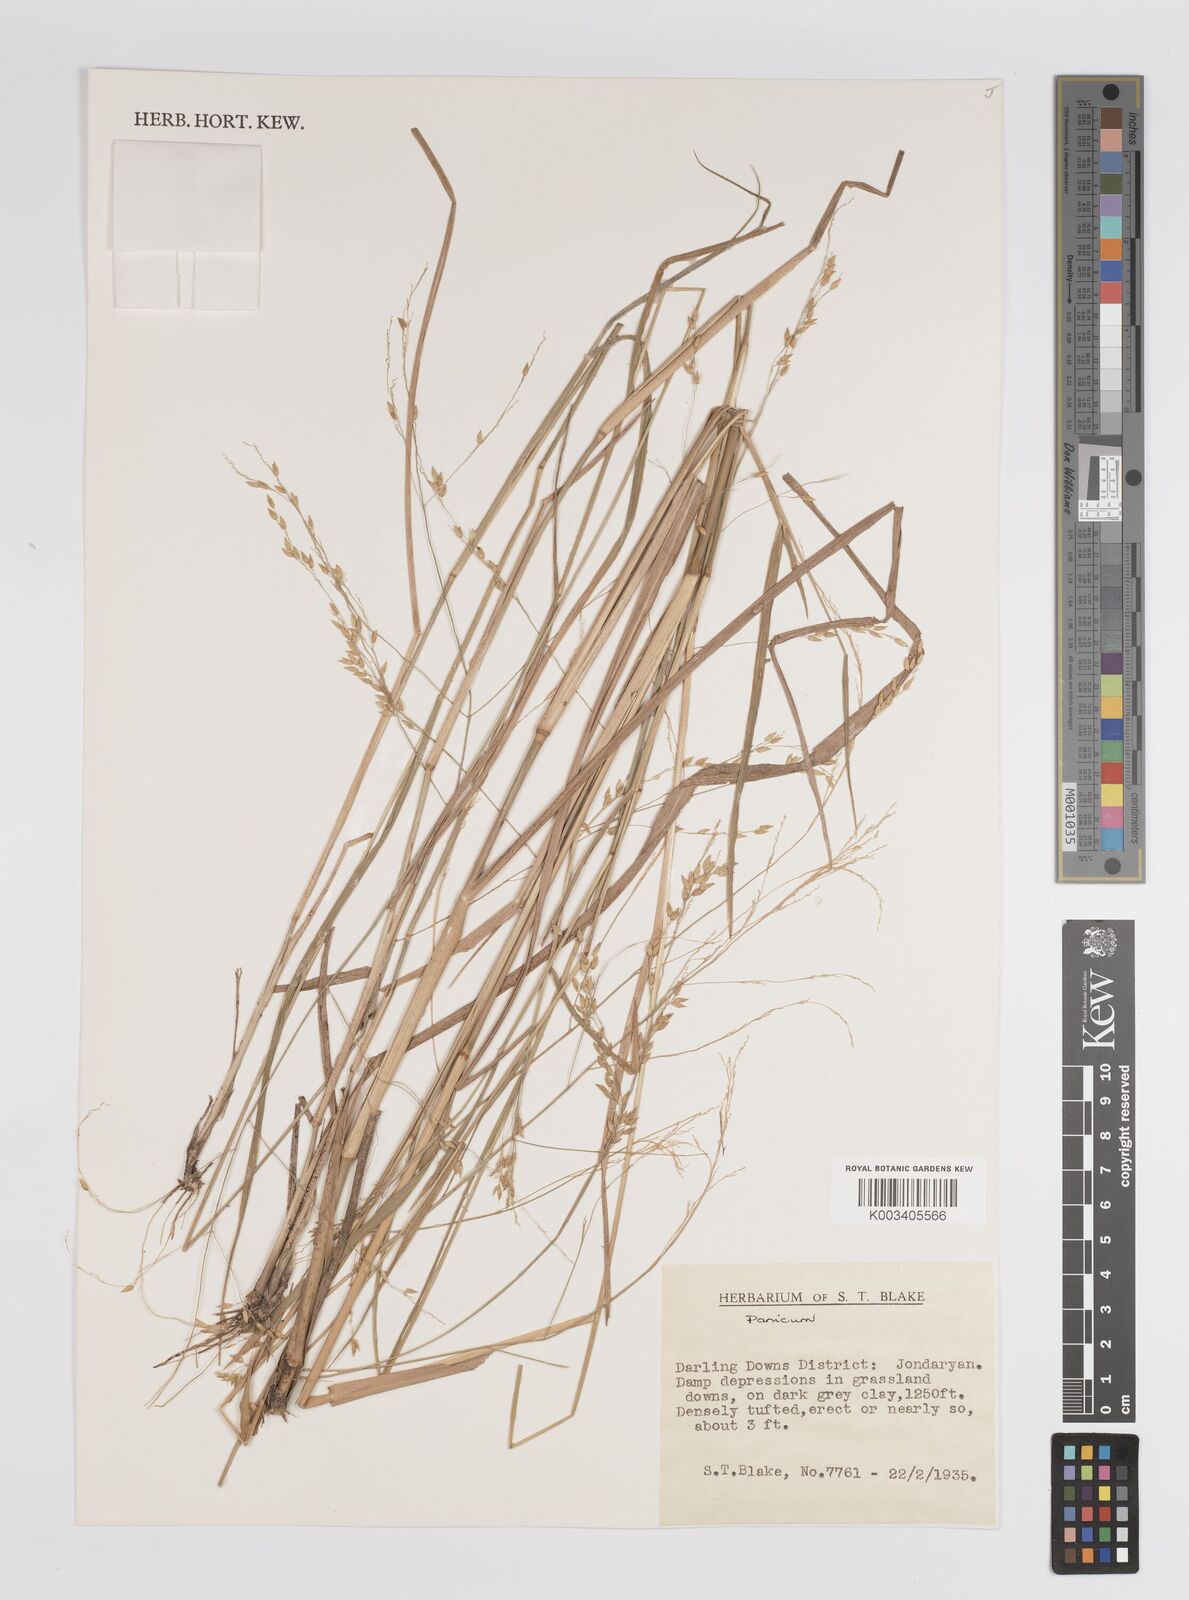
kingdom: Plantae
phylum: Tracheophyta
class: Liliopsida
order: Poales
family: Poaceae
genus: Panicum
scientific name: Panicum
